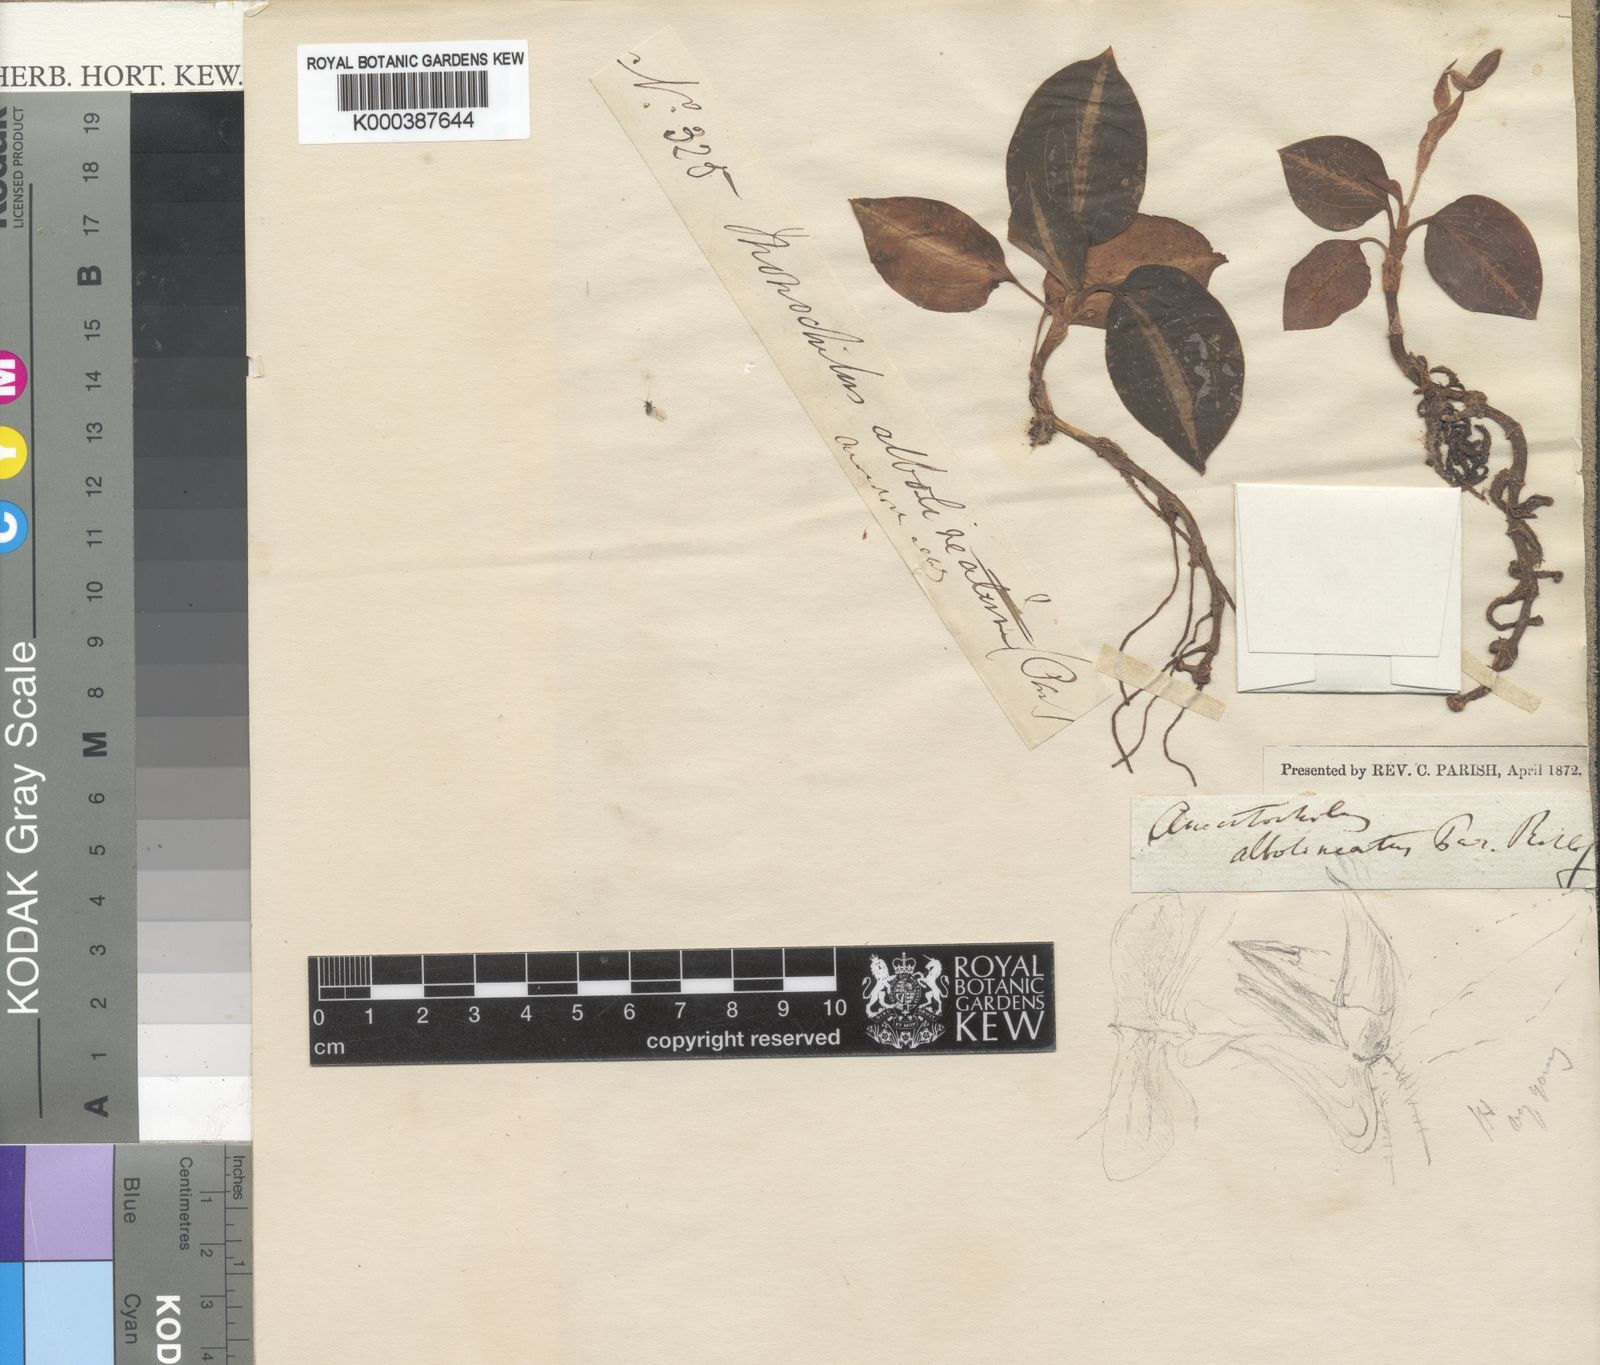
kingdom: Plantae
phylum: Tracheophyta
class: Liliopsida
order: Asparagales
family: Orchidaceae
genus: Anoectochilus
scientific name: Anoectochilus albolineatus
